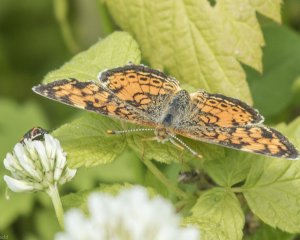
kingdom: Animalia
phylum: Arthropoda
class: Insecta
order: Lepidoptera
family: Nymphalidae
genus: Phyciodes
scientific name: Phyciodes tharos
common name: Northern Crescent
